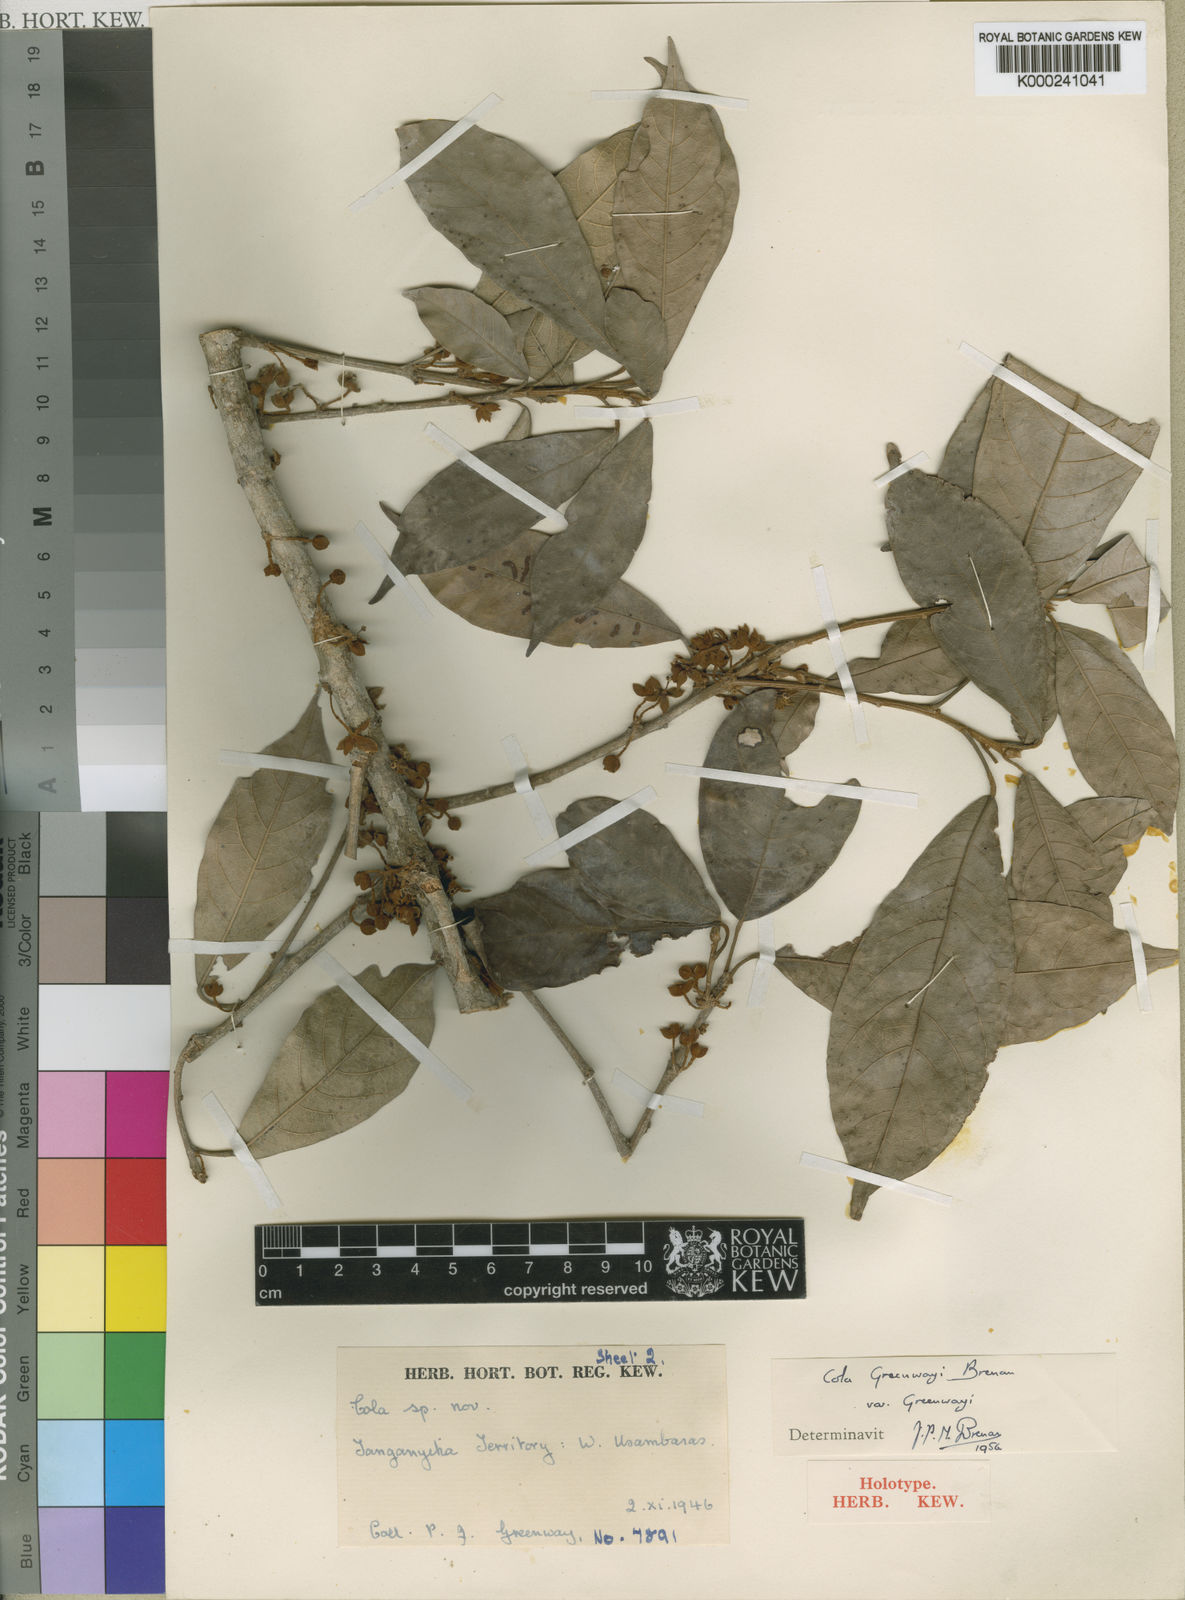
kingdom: Plantae
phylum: Tracheophyta
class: Magnoliopsida
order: Malvales
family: Malvaceae
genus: Cola
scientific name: Cola greenwayi
